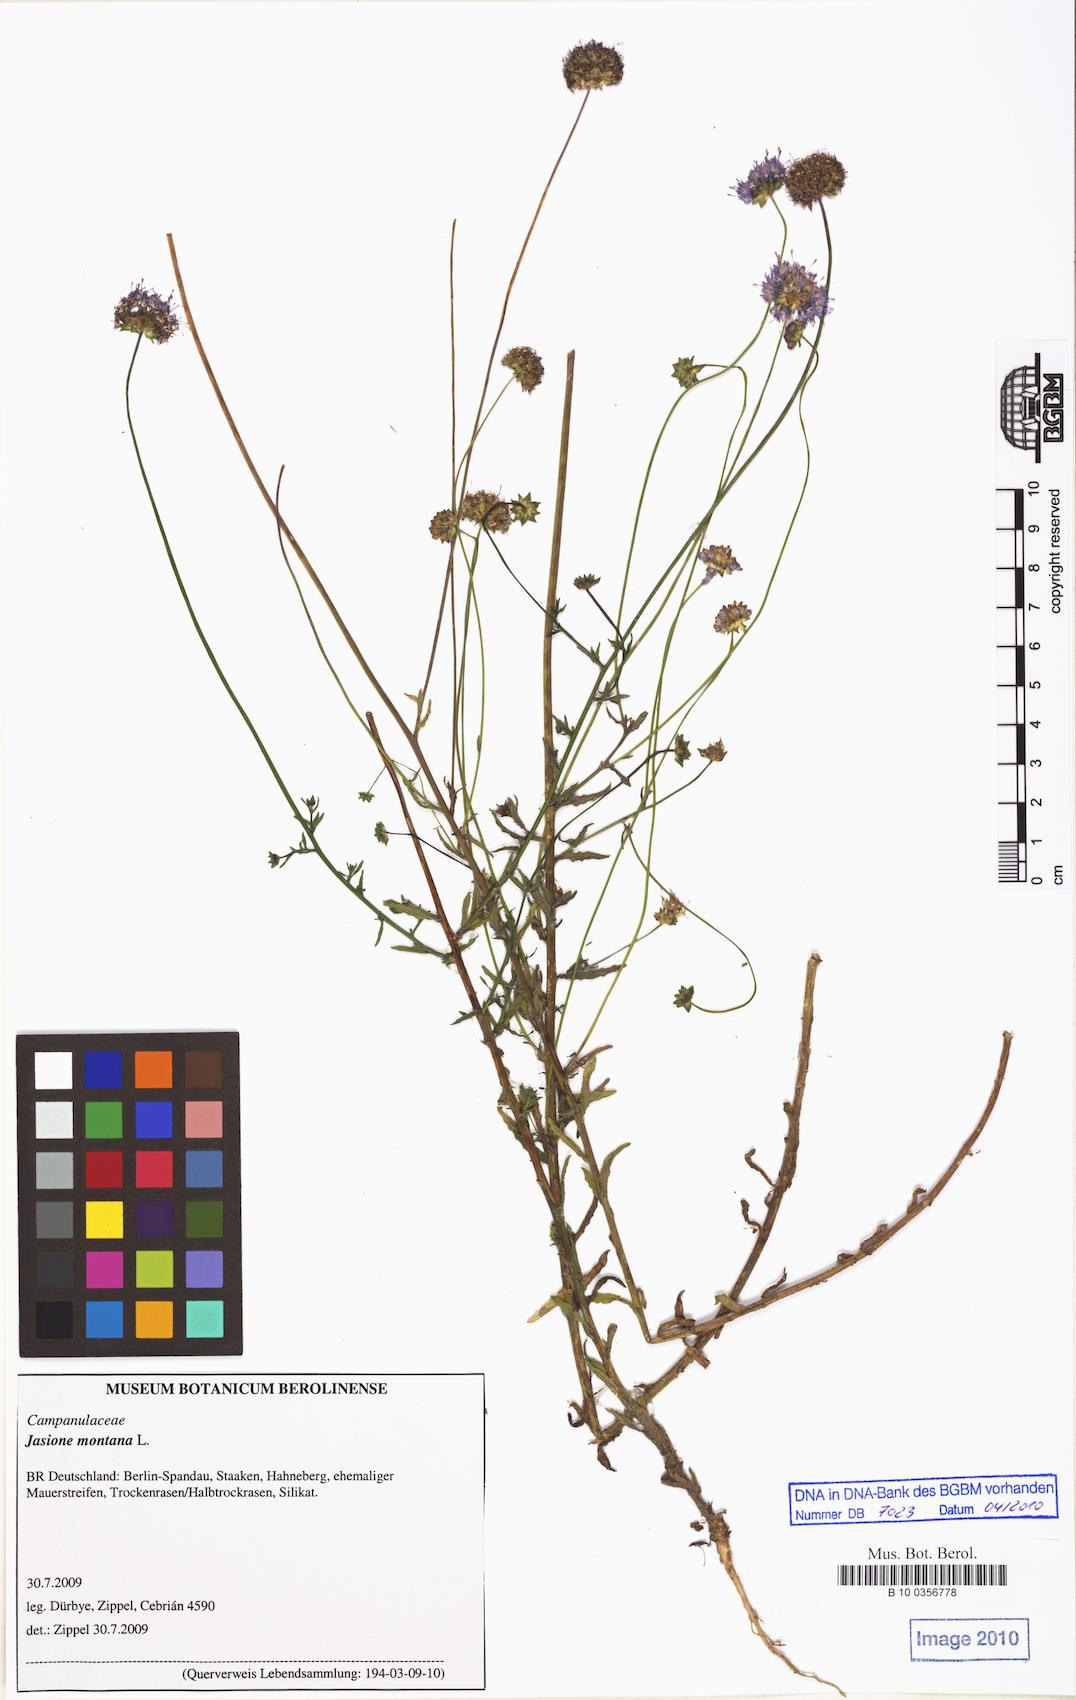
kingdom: Plantae
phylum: Tracheophyta
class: Magnoliopsida
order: Asterales
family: Campanulaceae
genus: Jasione
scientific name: Jasione montana
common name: Sheep's-bit
